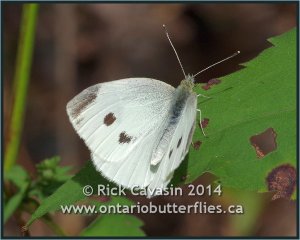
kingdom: Animalia
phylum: Arthropoda
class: Insecta
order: Lepidoptera
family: Pieridae
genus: Pieris
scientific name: Pieris rapae
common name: Cabbage White
